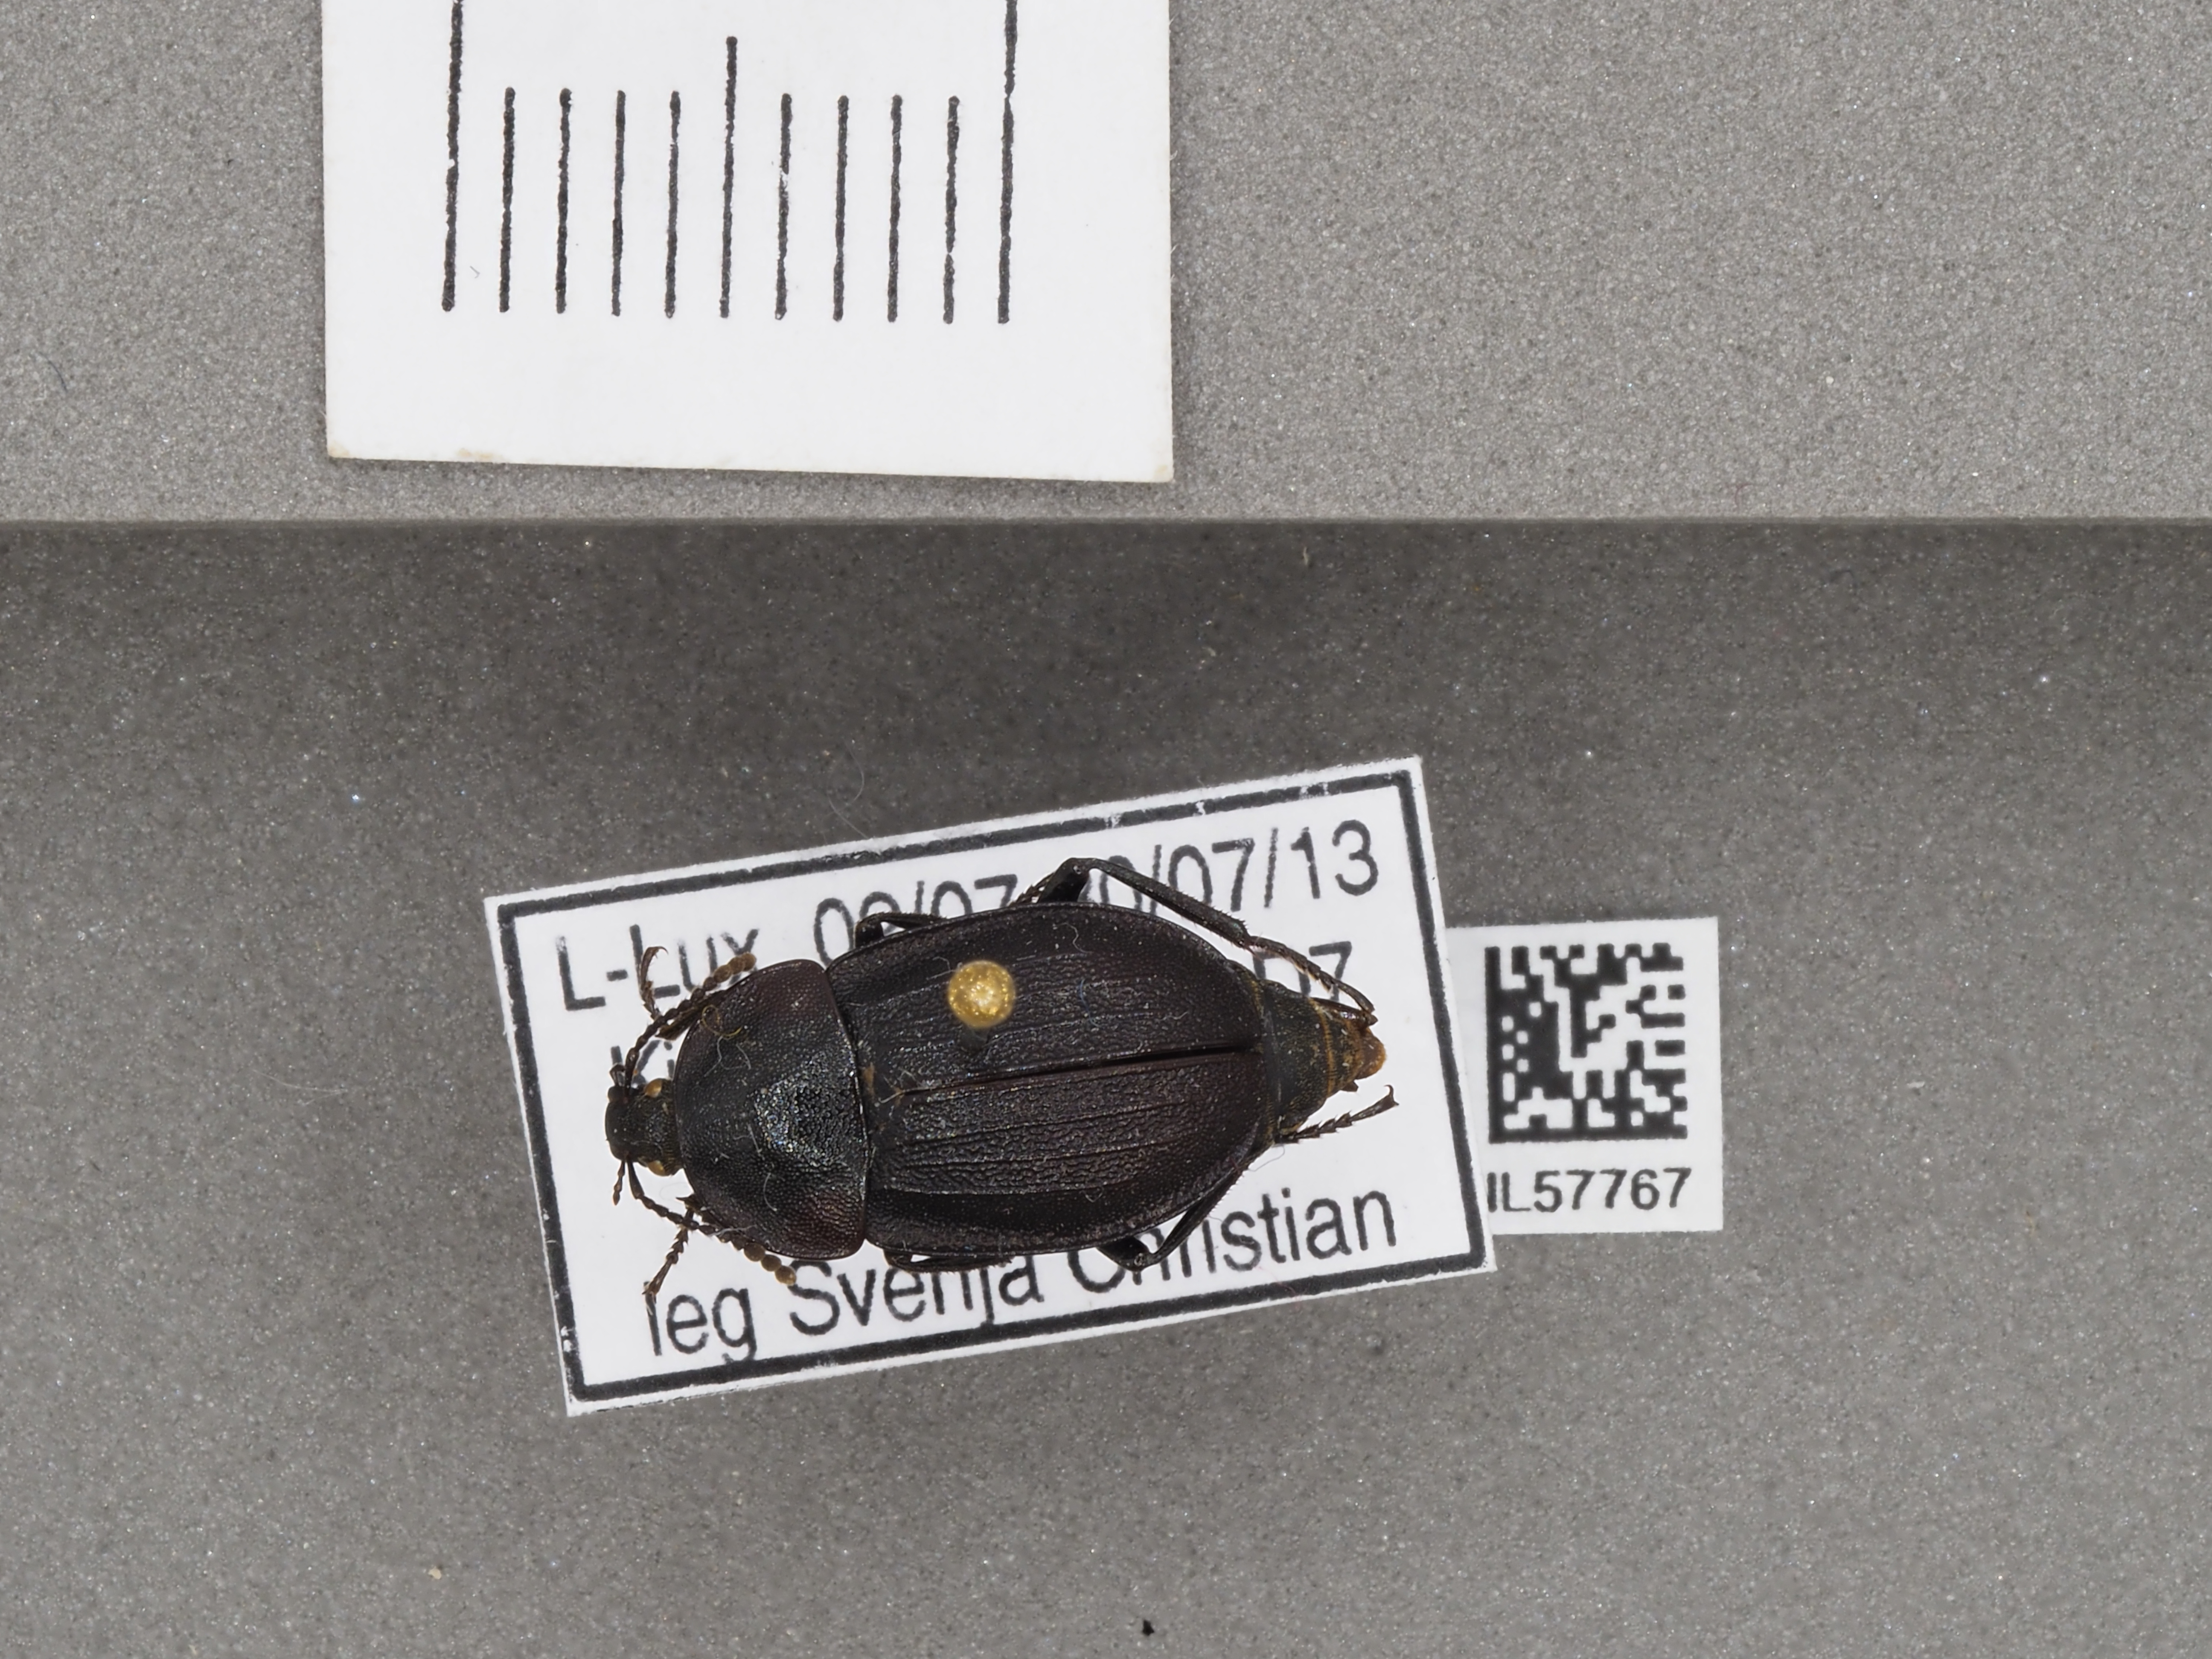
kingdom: Animalia
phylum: Arthropoda
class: Insecta
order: Coleoptera
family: Staphylinidae
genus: Silpha
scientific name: Silpha atrata
